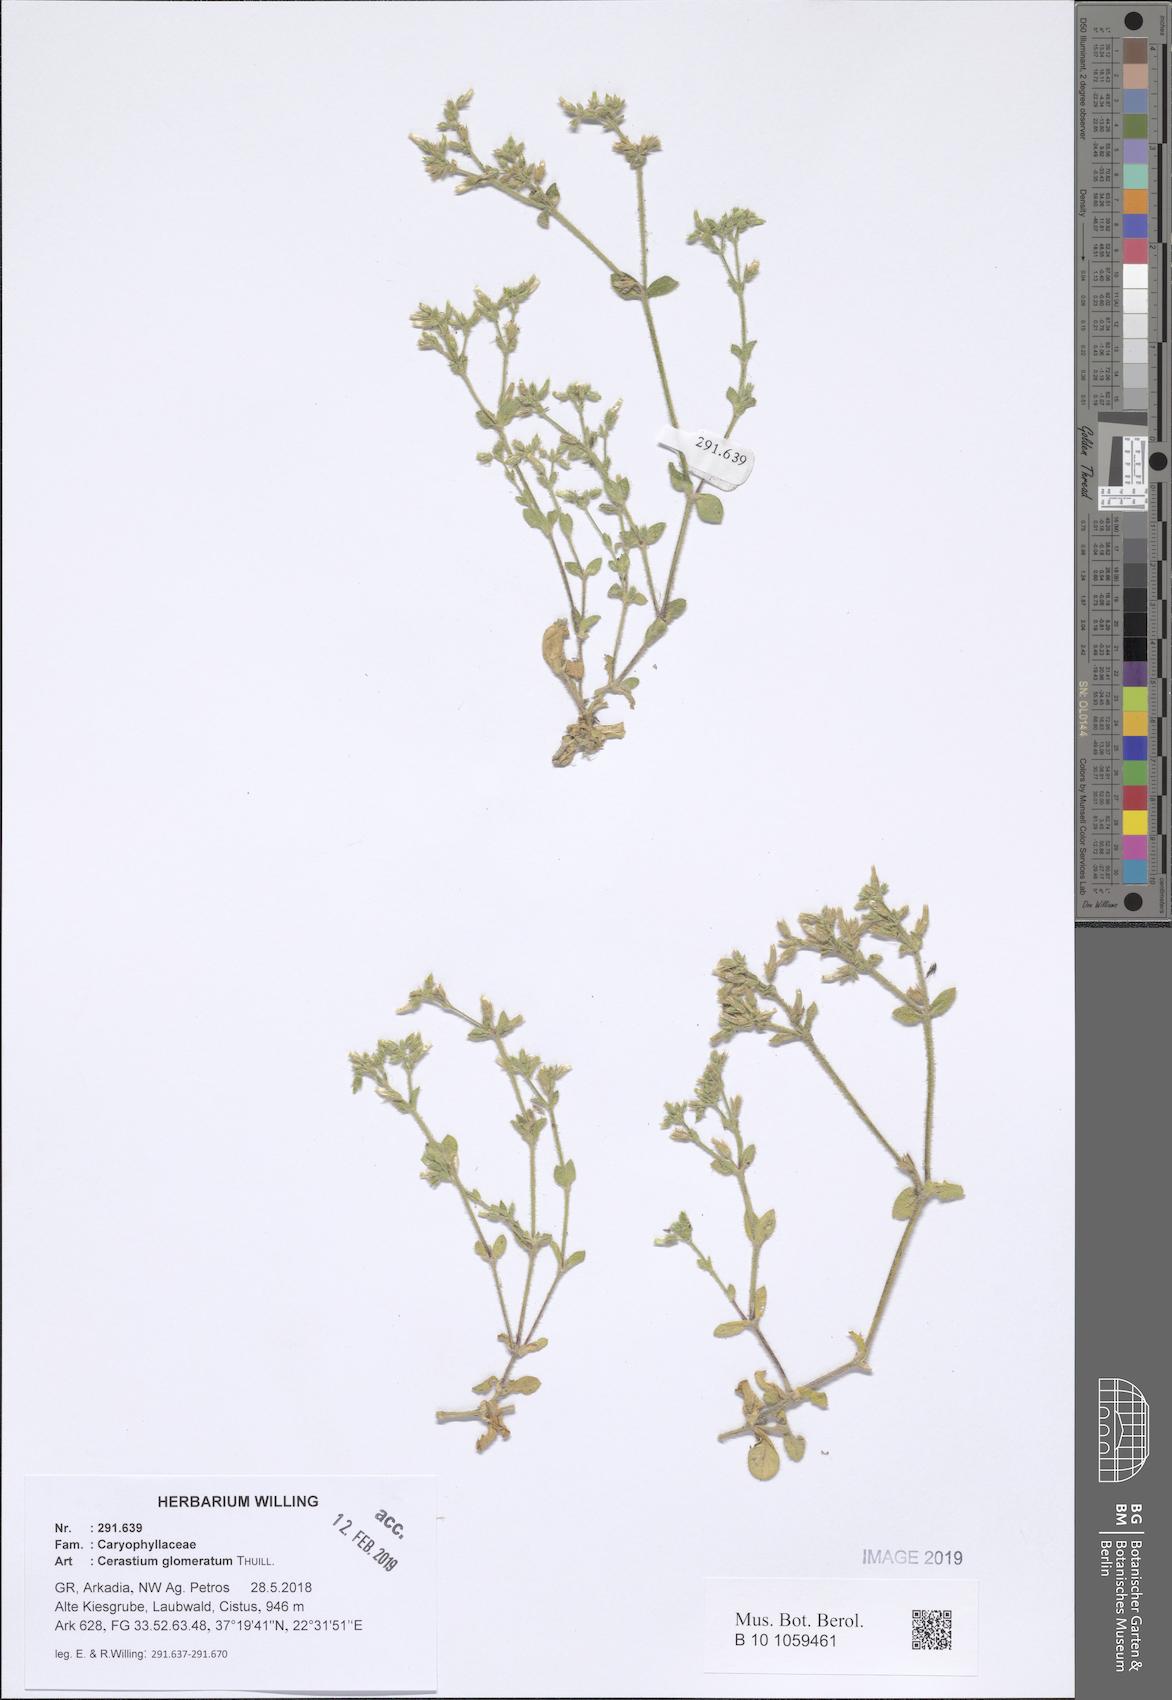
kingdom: Plantae
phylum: Tracheophyta
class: Magnoliopsida
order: Caryophyllales
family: Caryophyllaceae
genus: Cerastium
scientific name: Cerastium glomeratum
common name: Sticky chickweed
